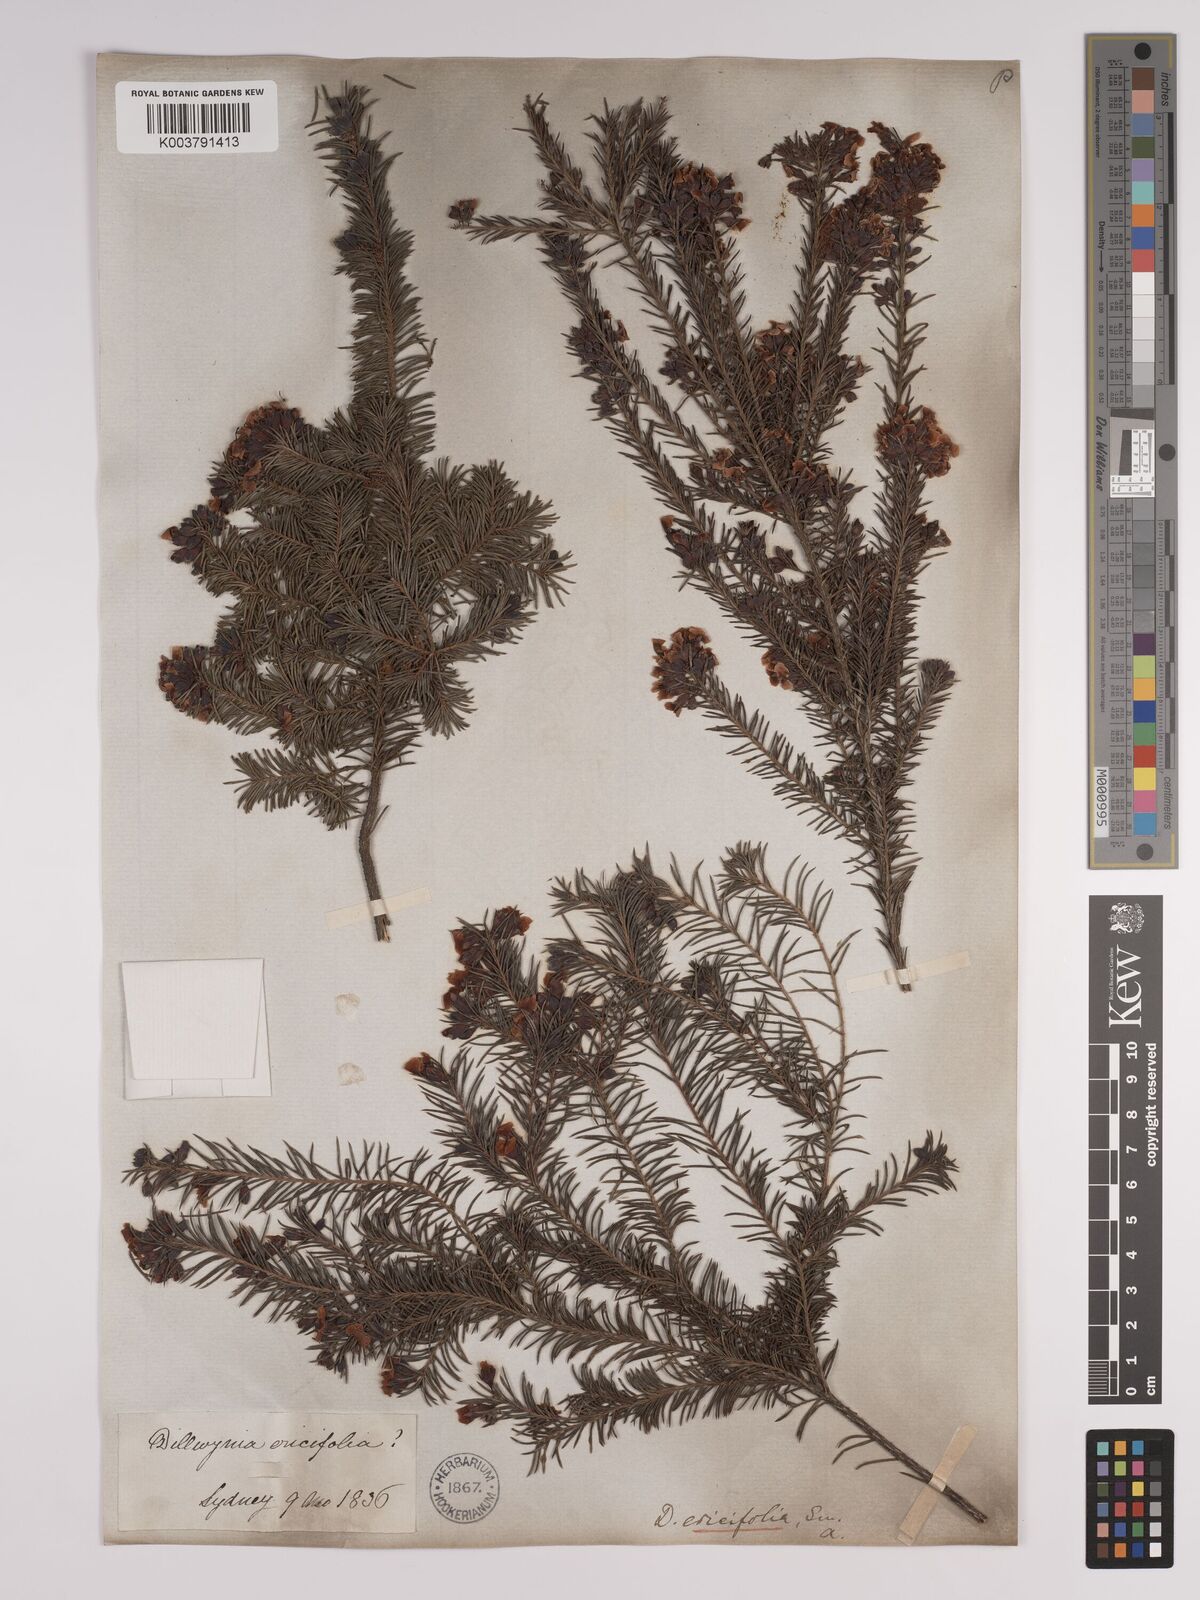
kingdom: Plantae
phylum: Tracheophyta
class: Magnoliopsida
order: Fabales
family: Fabaceae
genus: Dillwynia
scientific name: Dillwynia retorta
